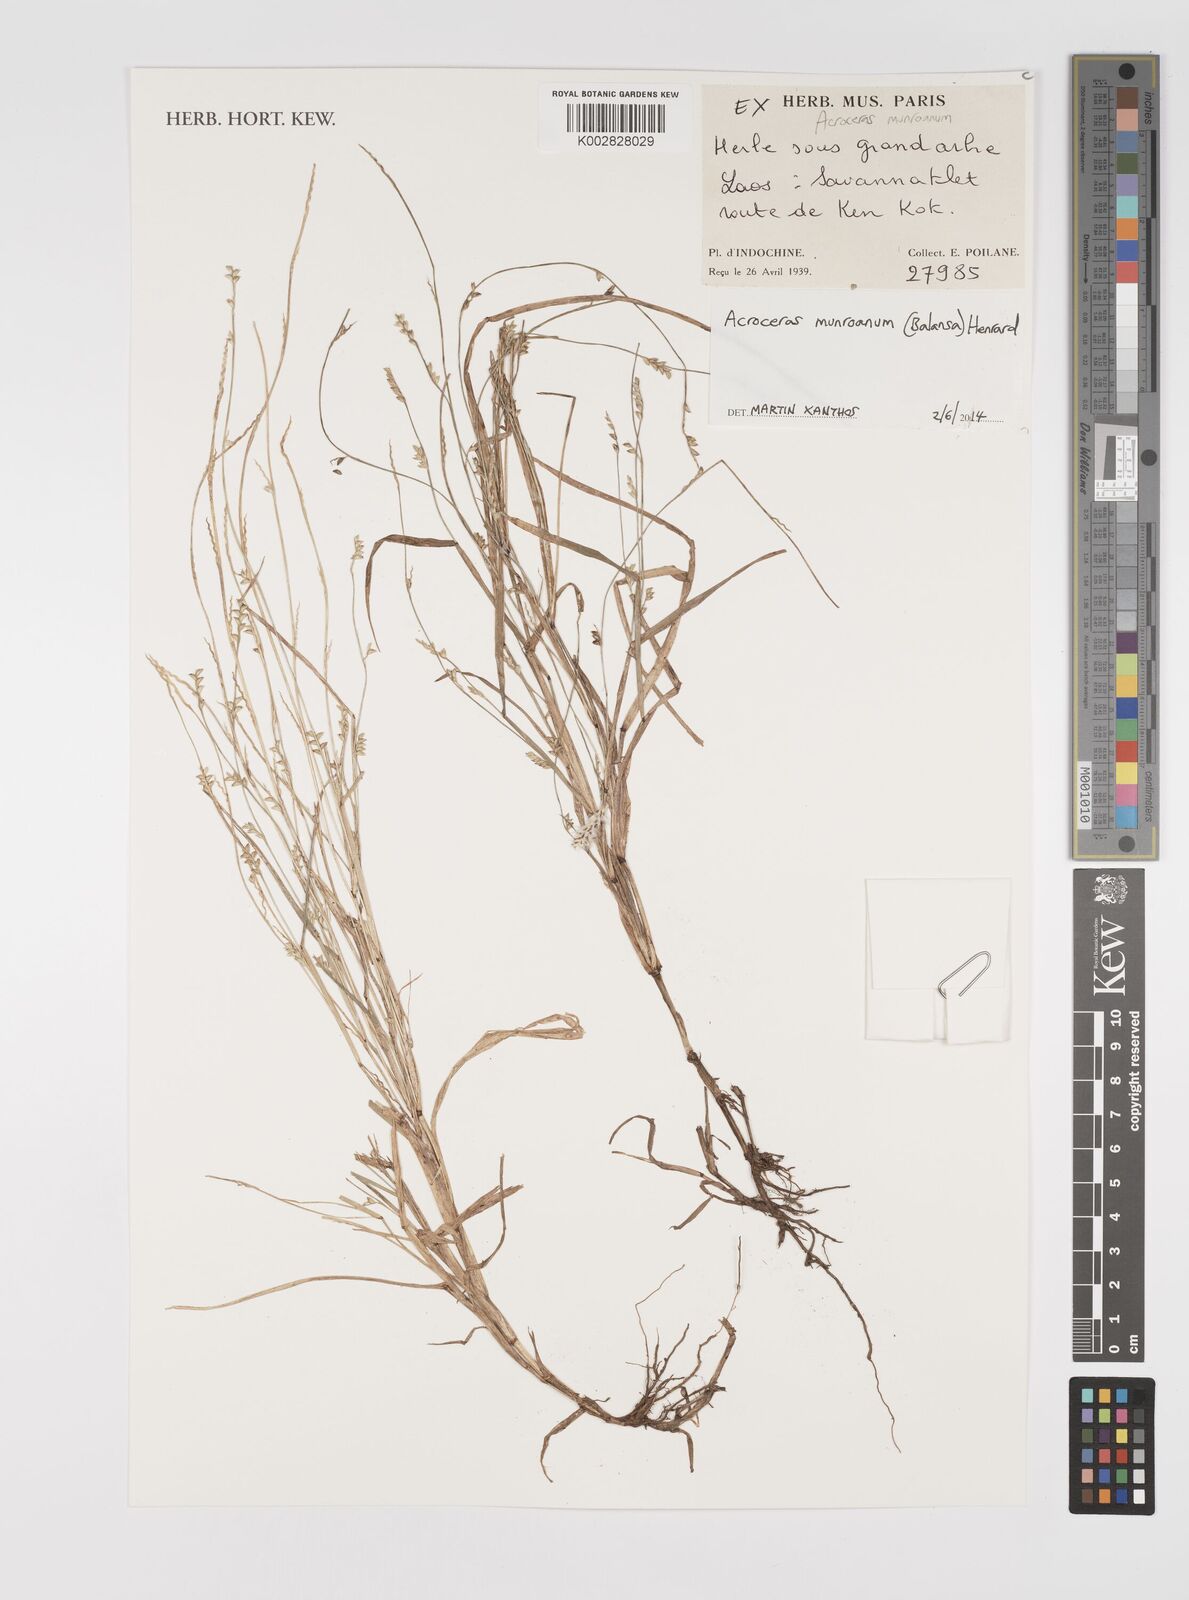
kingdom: Plantae
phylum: Tracheophyta
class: Liliopsida
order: Poales
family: Poaceae
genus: Acroceras
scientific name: Acroceras munroanum
